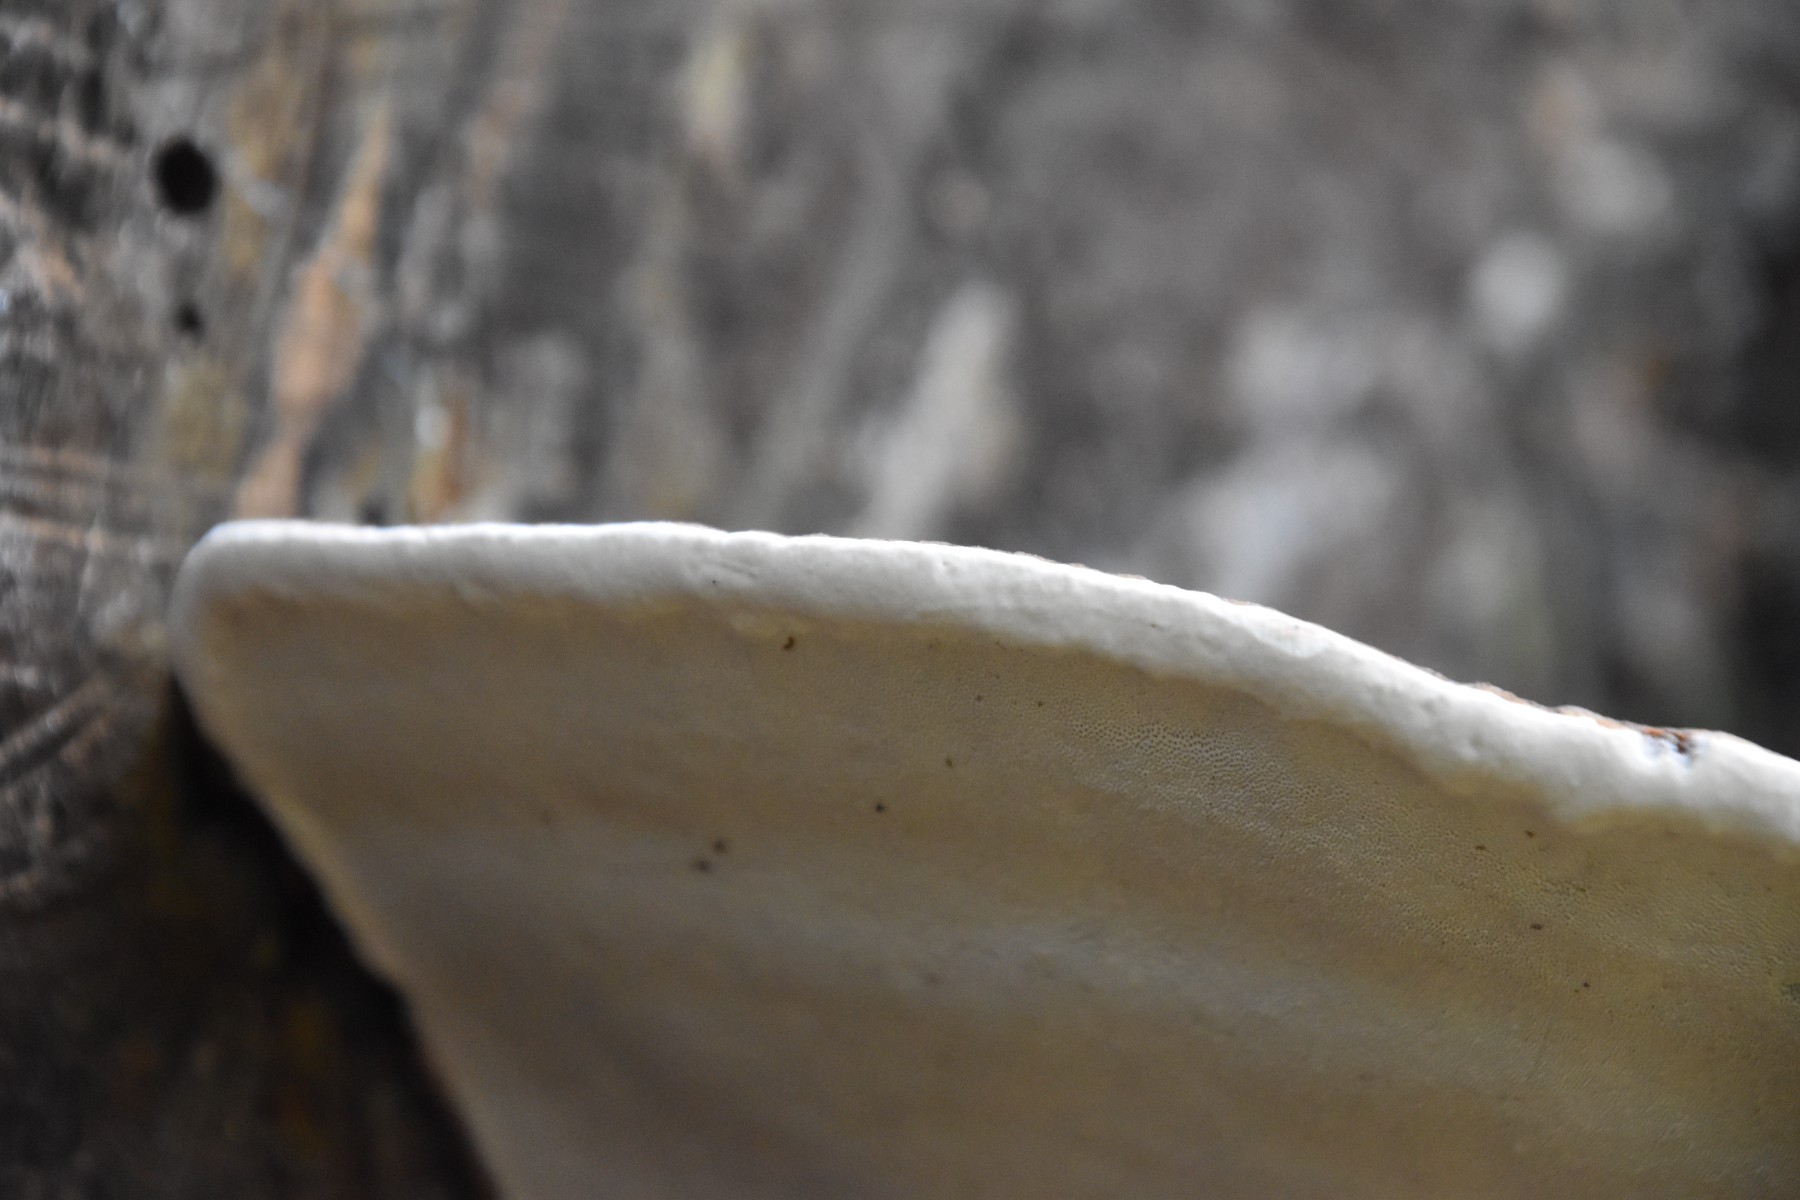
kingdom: Fungi
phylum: Basidiomycota
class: Agaricomycetes
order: Polyporales
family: Polyporaceae
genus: Ganoderma
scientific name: Ganoderma applanatum
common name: flad lakporesvamp
